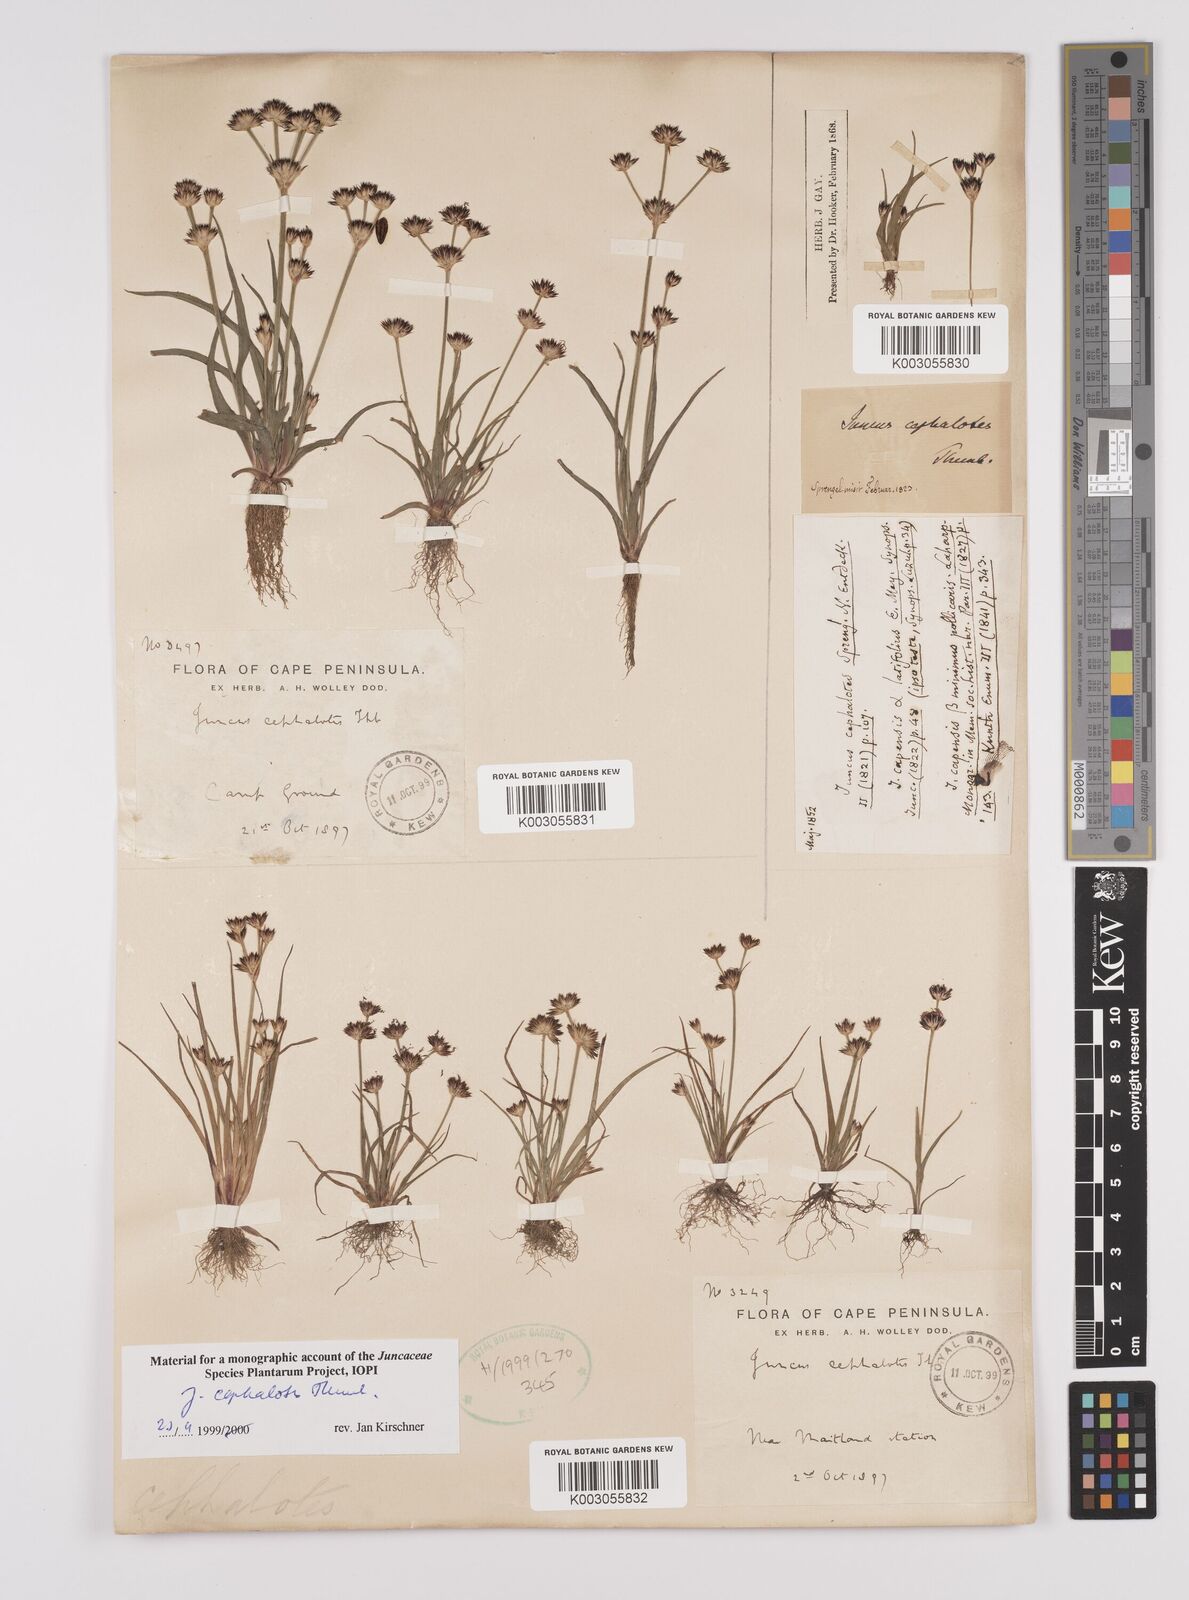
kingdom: Plantae
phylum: Tracheophyta
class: Liliopsida
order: Poales
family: Juncaceae
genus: Juncus
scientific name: Juncus cephalotes
